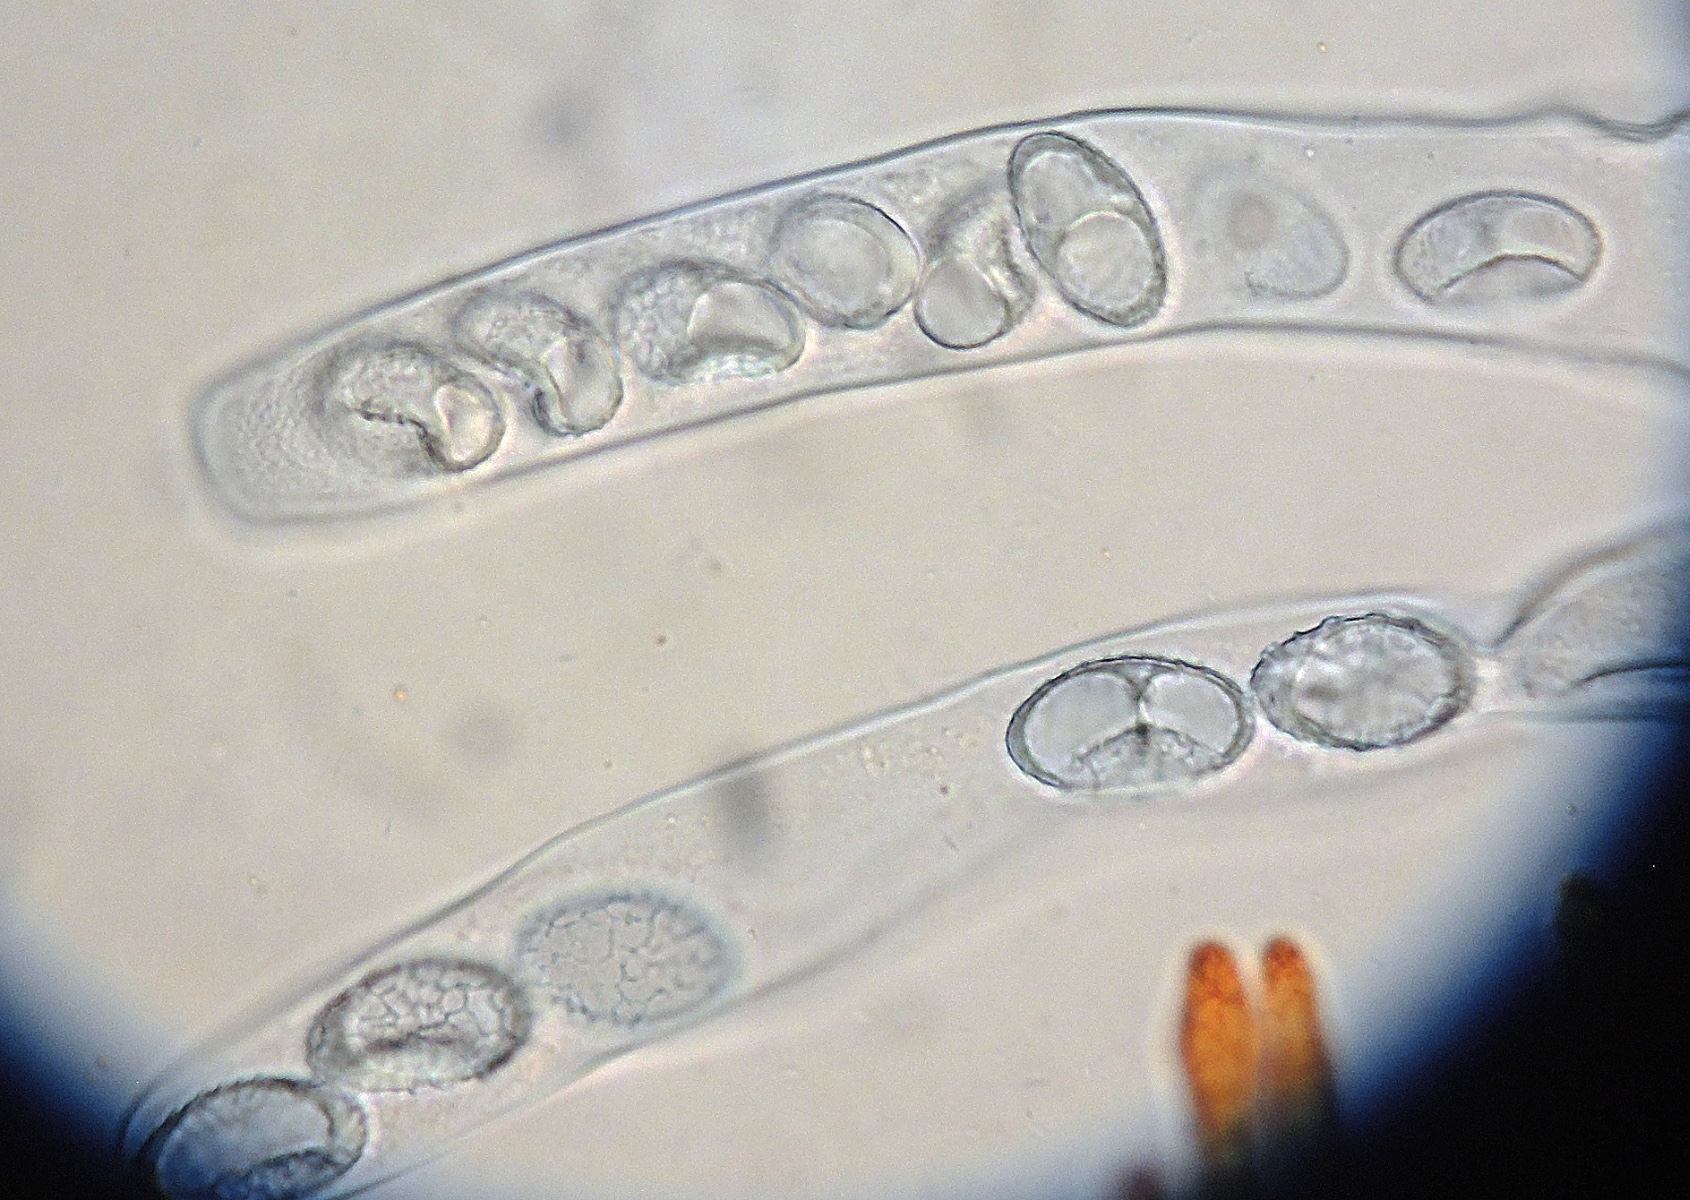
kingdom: Fungi
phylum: Ascomycota
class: Pezizomycetes
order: Pezizales
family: Pyronemataceae
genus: Neottiella
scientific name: Neottiella rutilans
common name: jomfruhår-mosbæger
